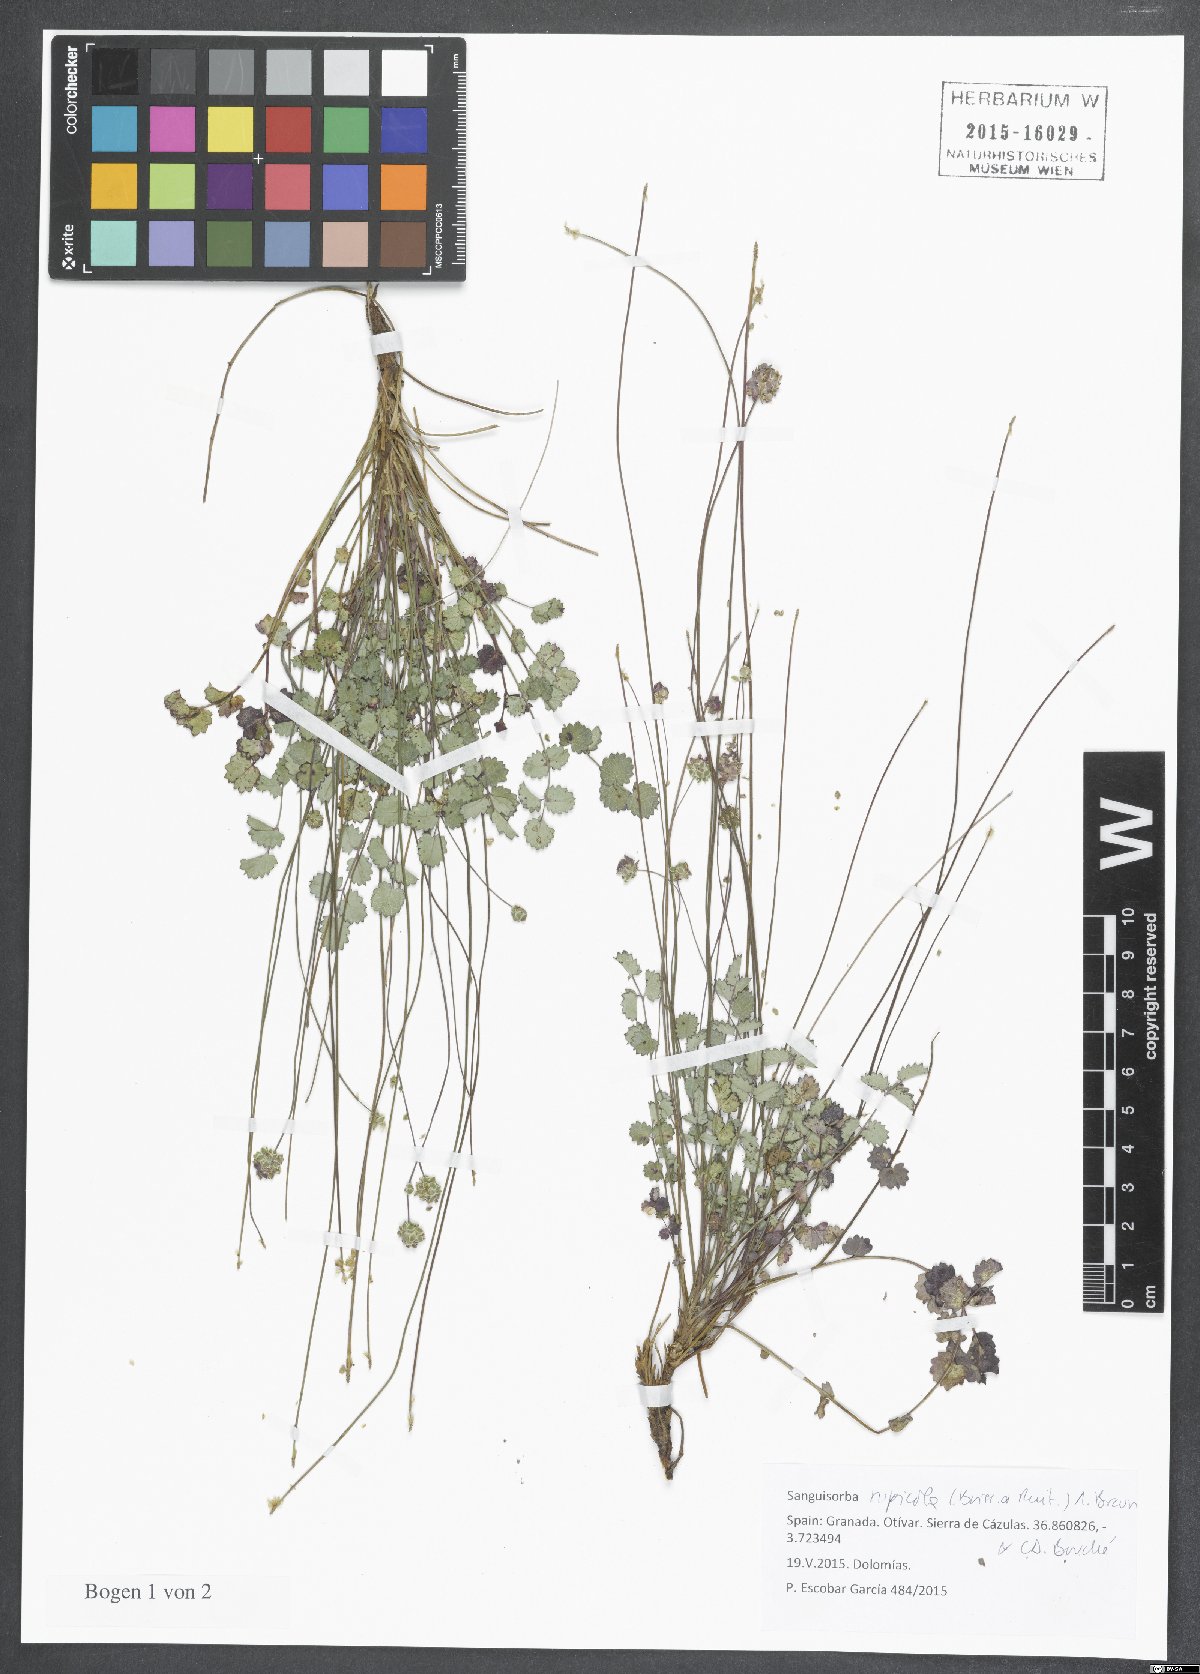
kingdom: Plantae
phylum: Tracheophyta
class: Magnoliopsida
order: Rosales
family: Rosaceae
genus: Poterium
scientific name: Poterium rupicolum
